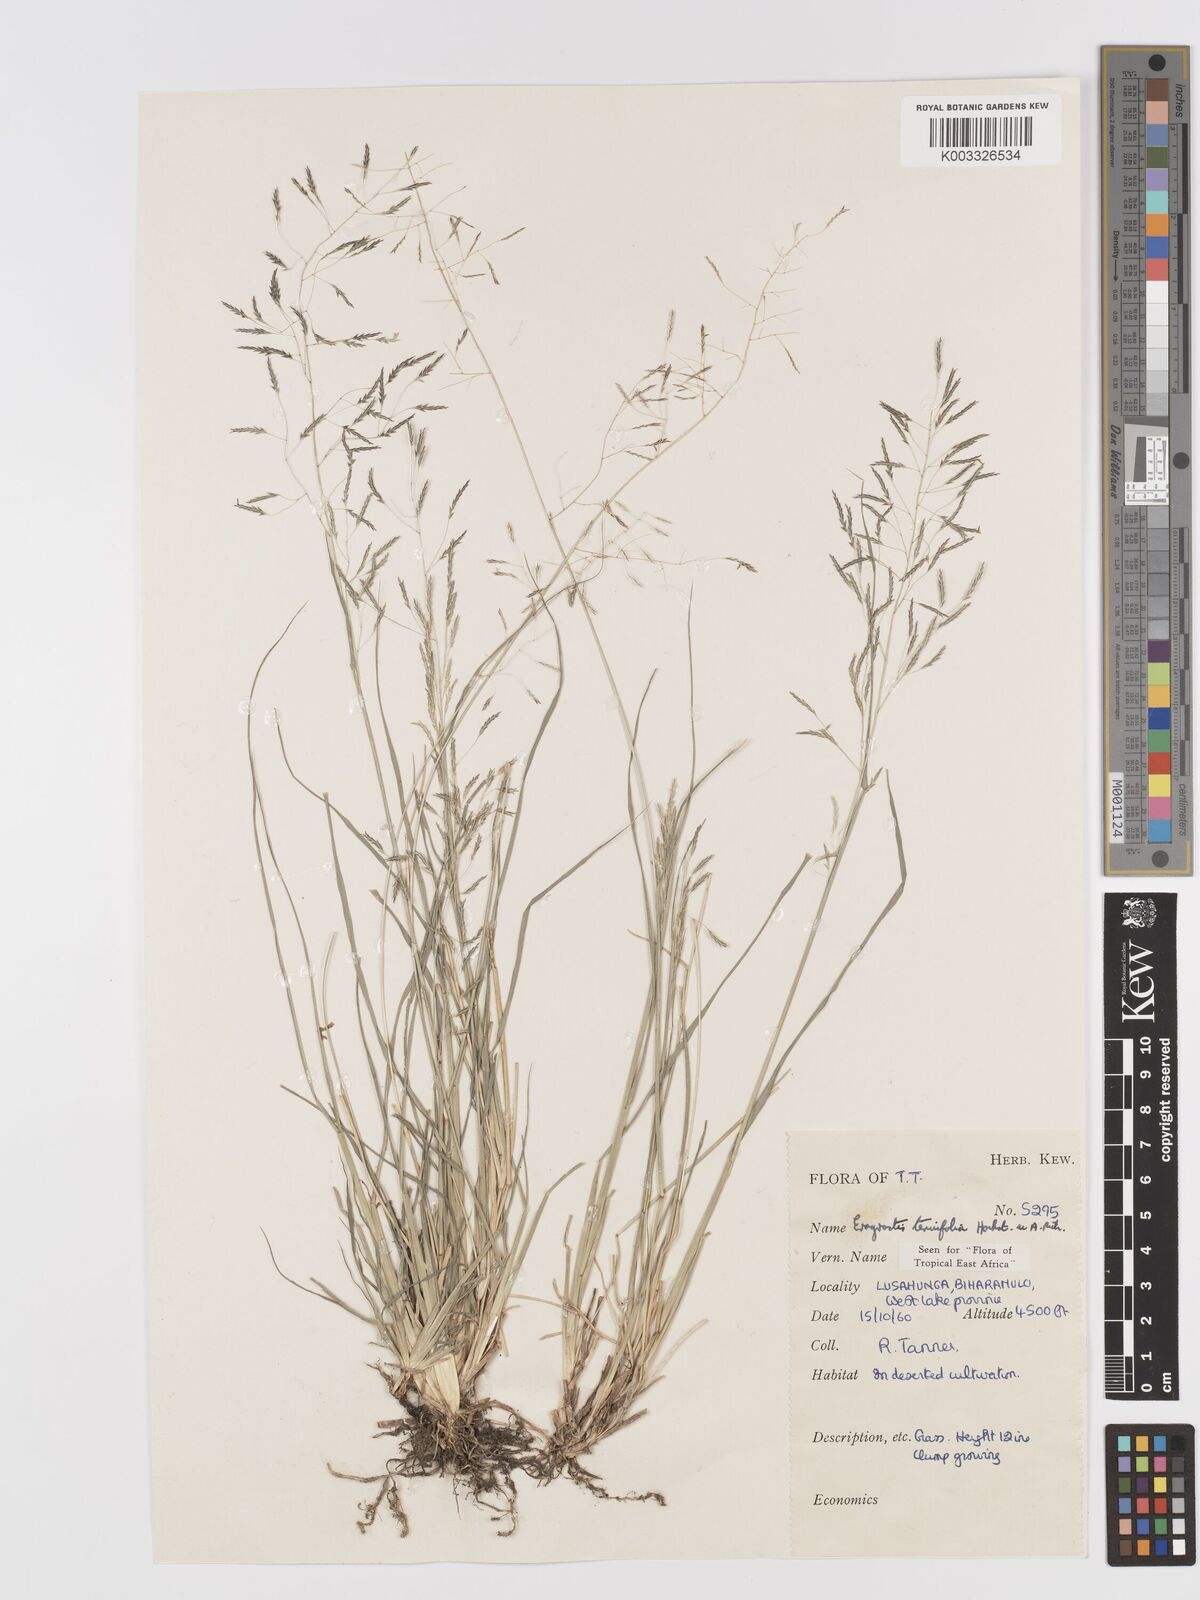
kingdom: Plantae
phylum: Tracheophyta
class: Liliopsida
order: Poales
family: Poaceae
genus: Eragrostis
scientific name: Eragrostis tenuifolia
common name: Elastic grass
